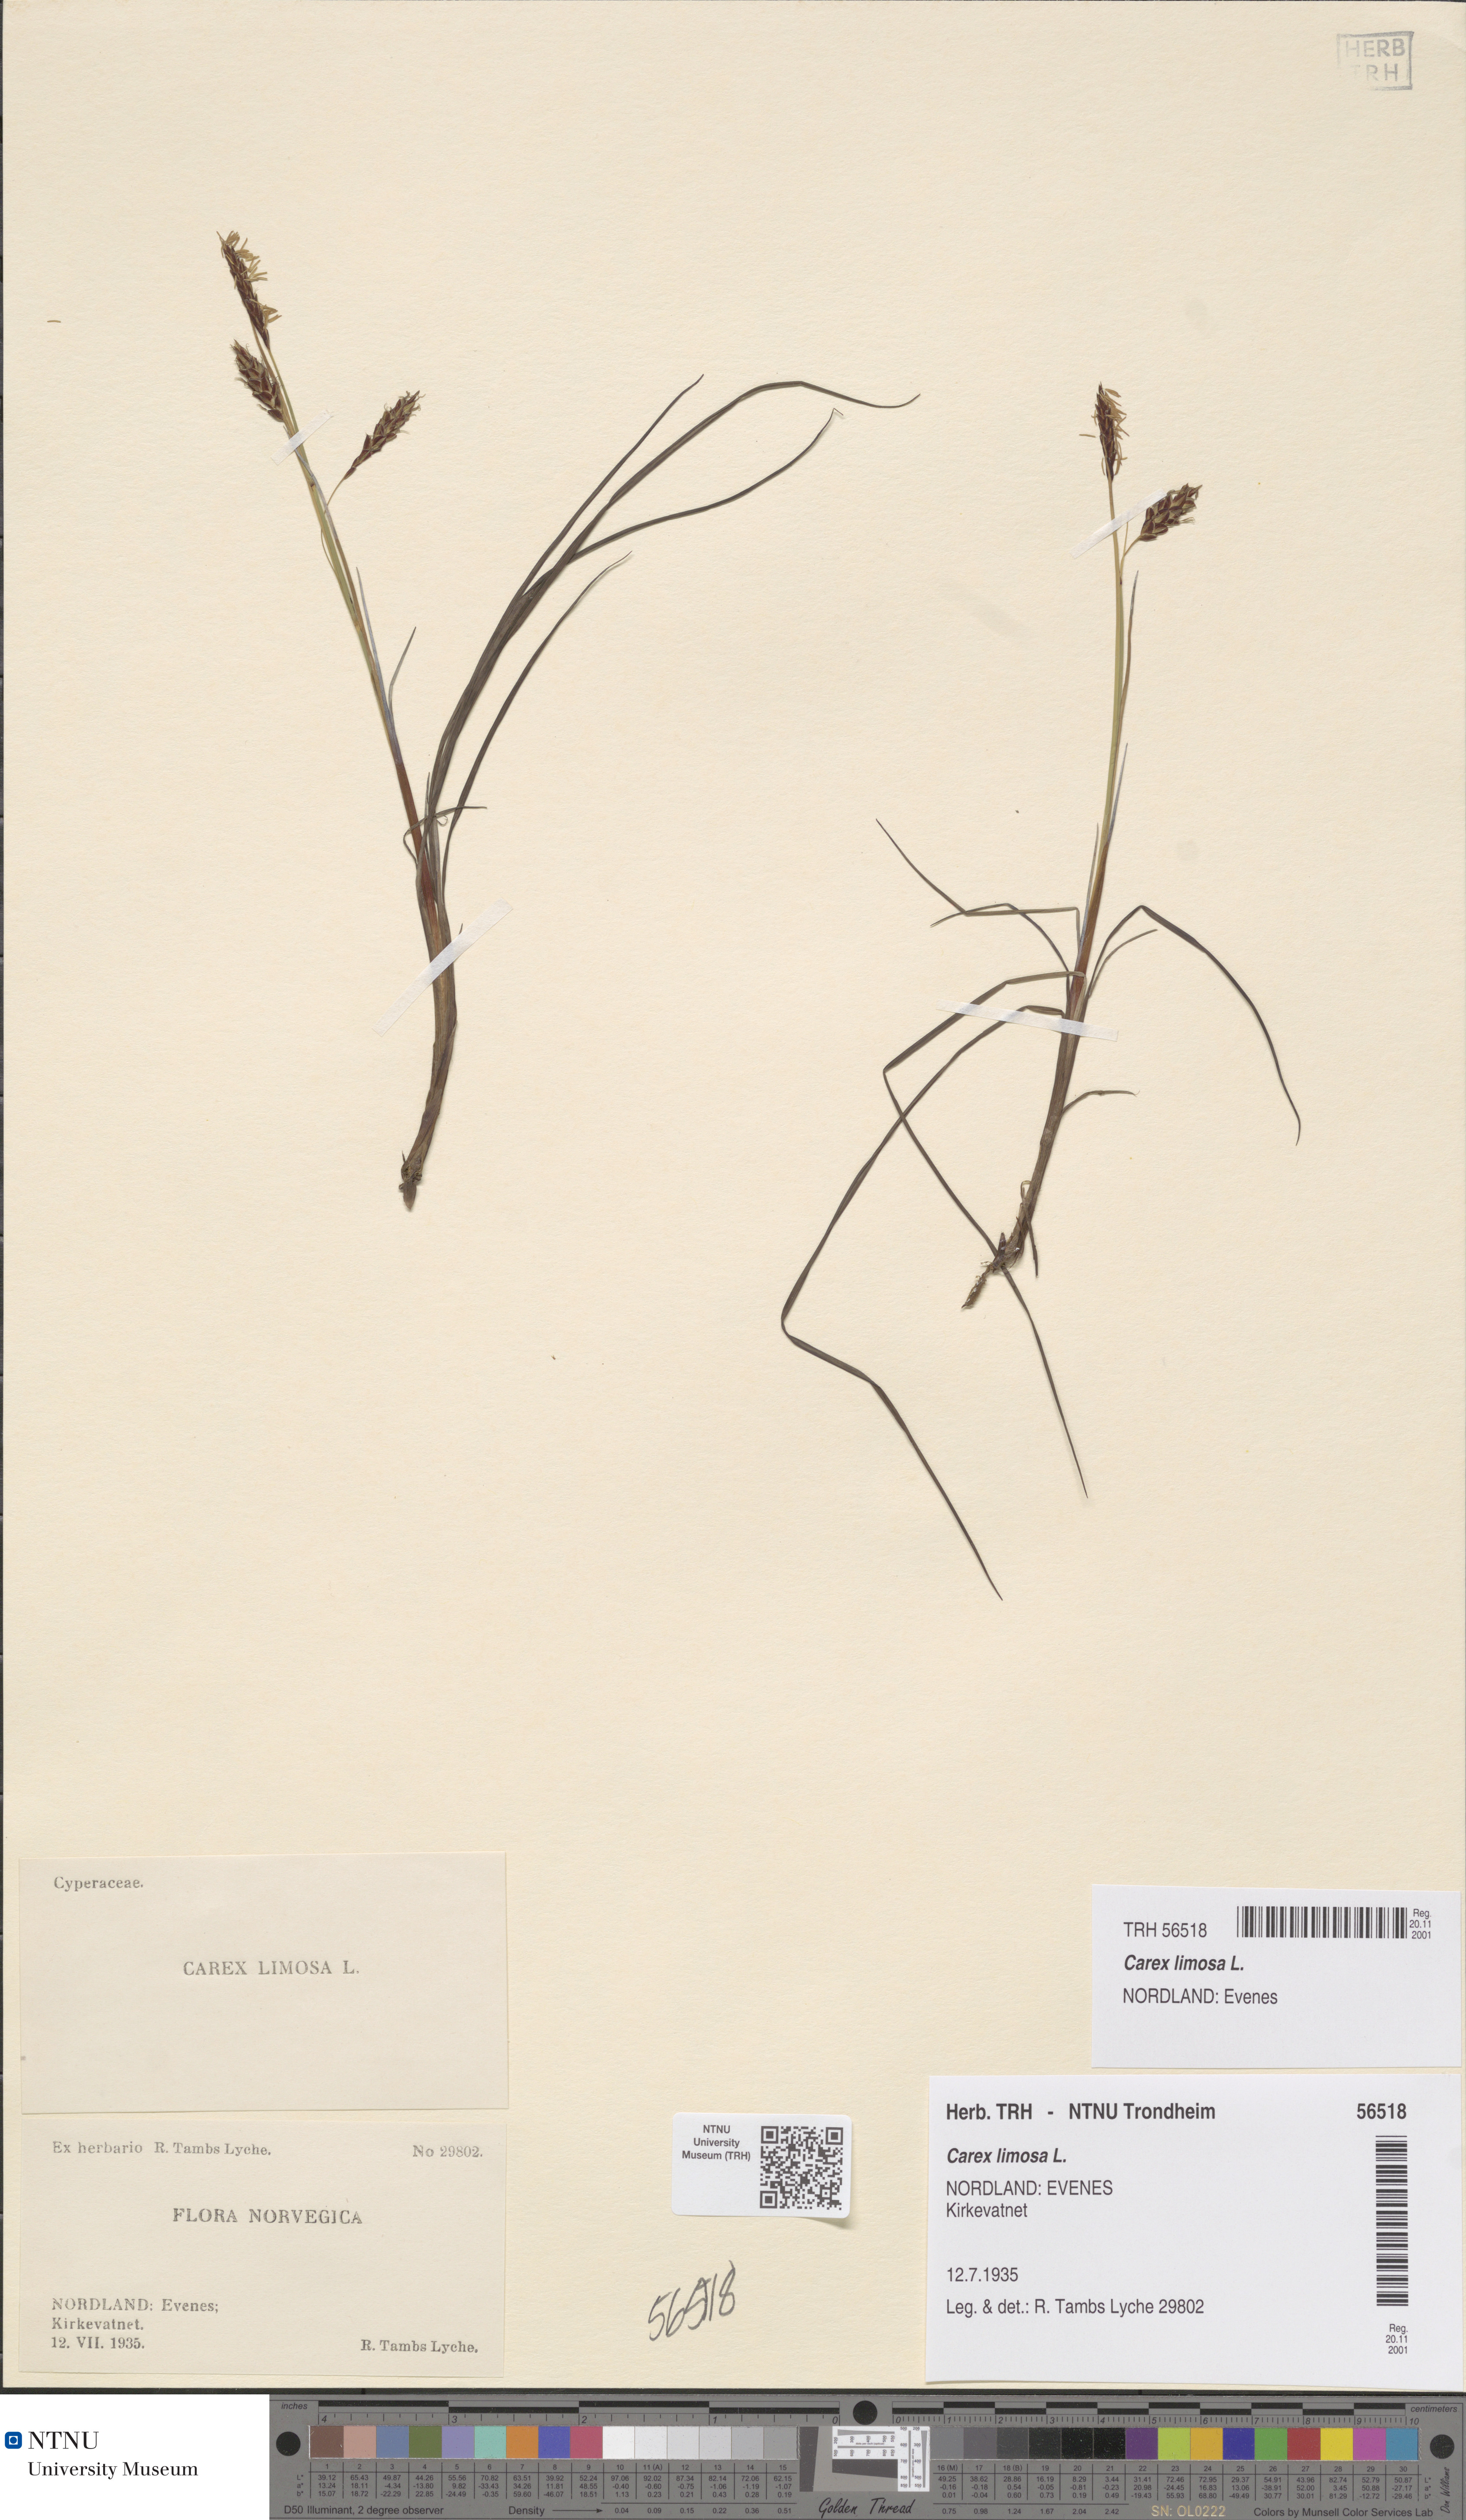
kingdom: Plantae
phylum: Tracheophyta
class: Liliopsida
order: Poales
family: Cyperaceae
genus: Carex
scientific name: Carex limosa
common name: Bog sedge
